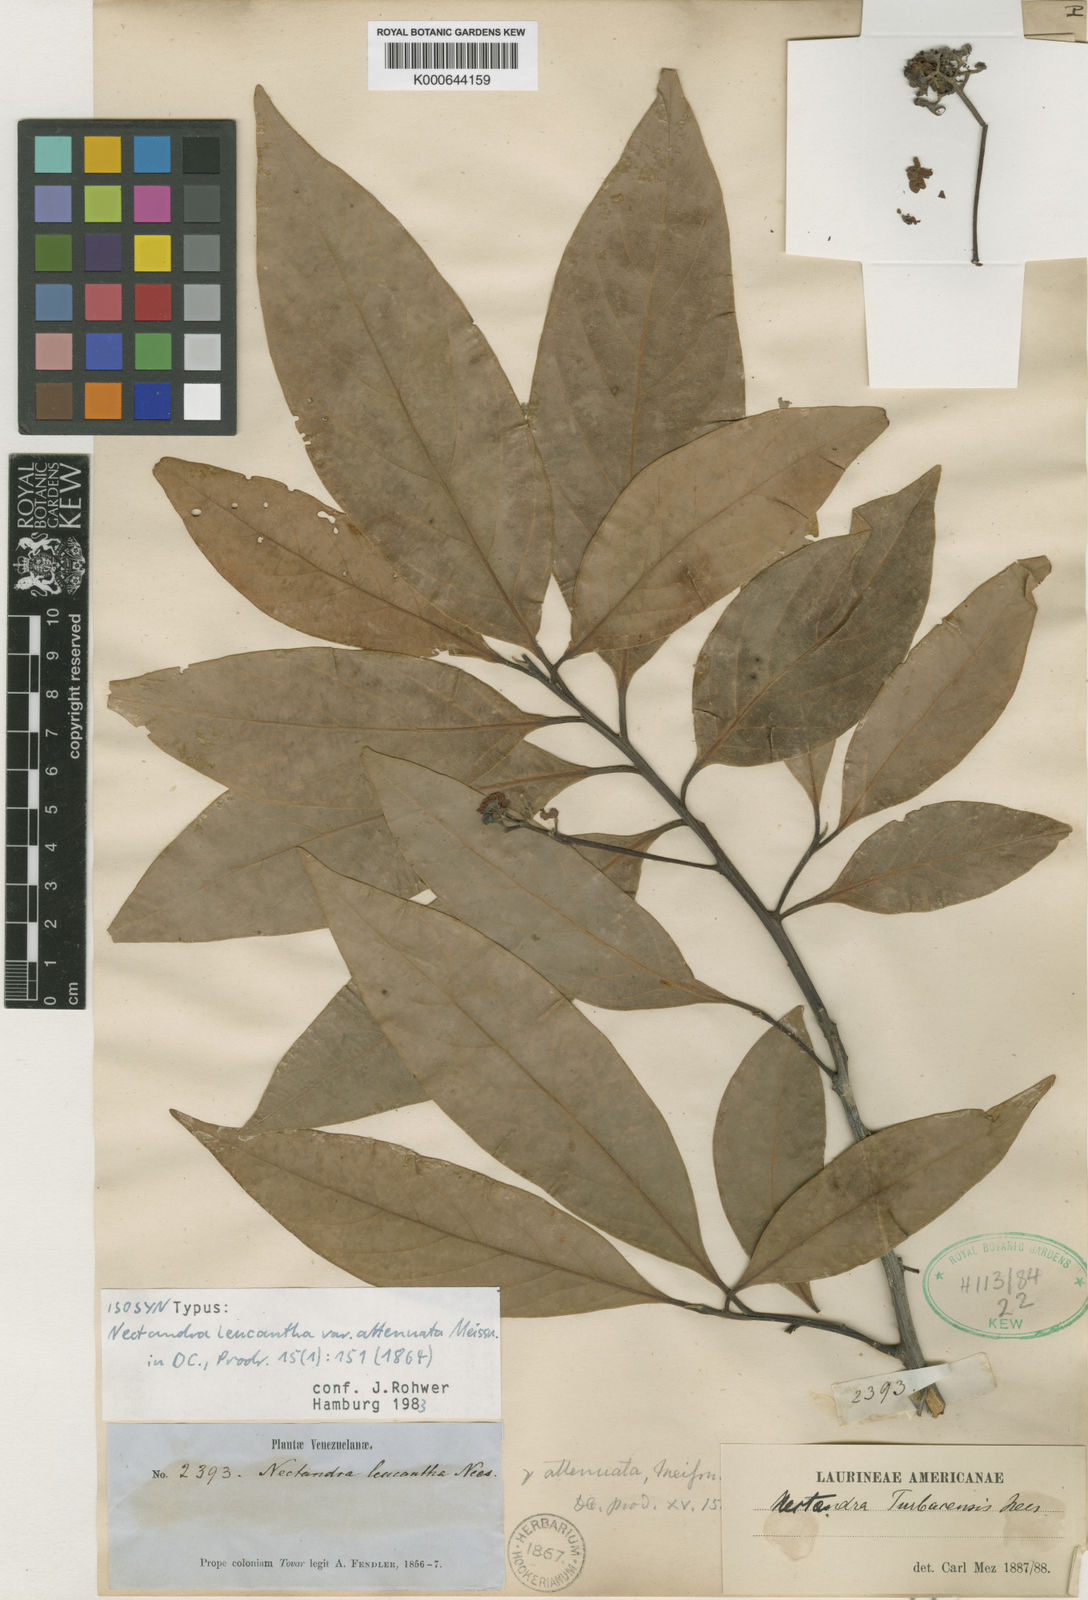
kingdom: Plantae
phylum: Tracheophyta
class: Magnoliopsida
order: Laurales
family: Lauraceae
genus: Nectandra
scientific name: Nectandra hihua
